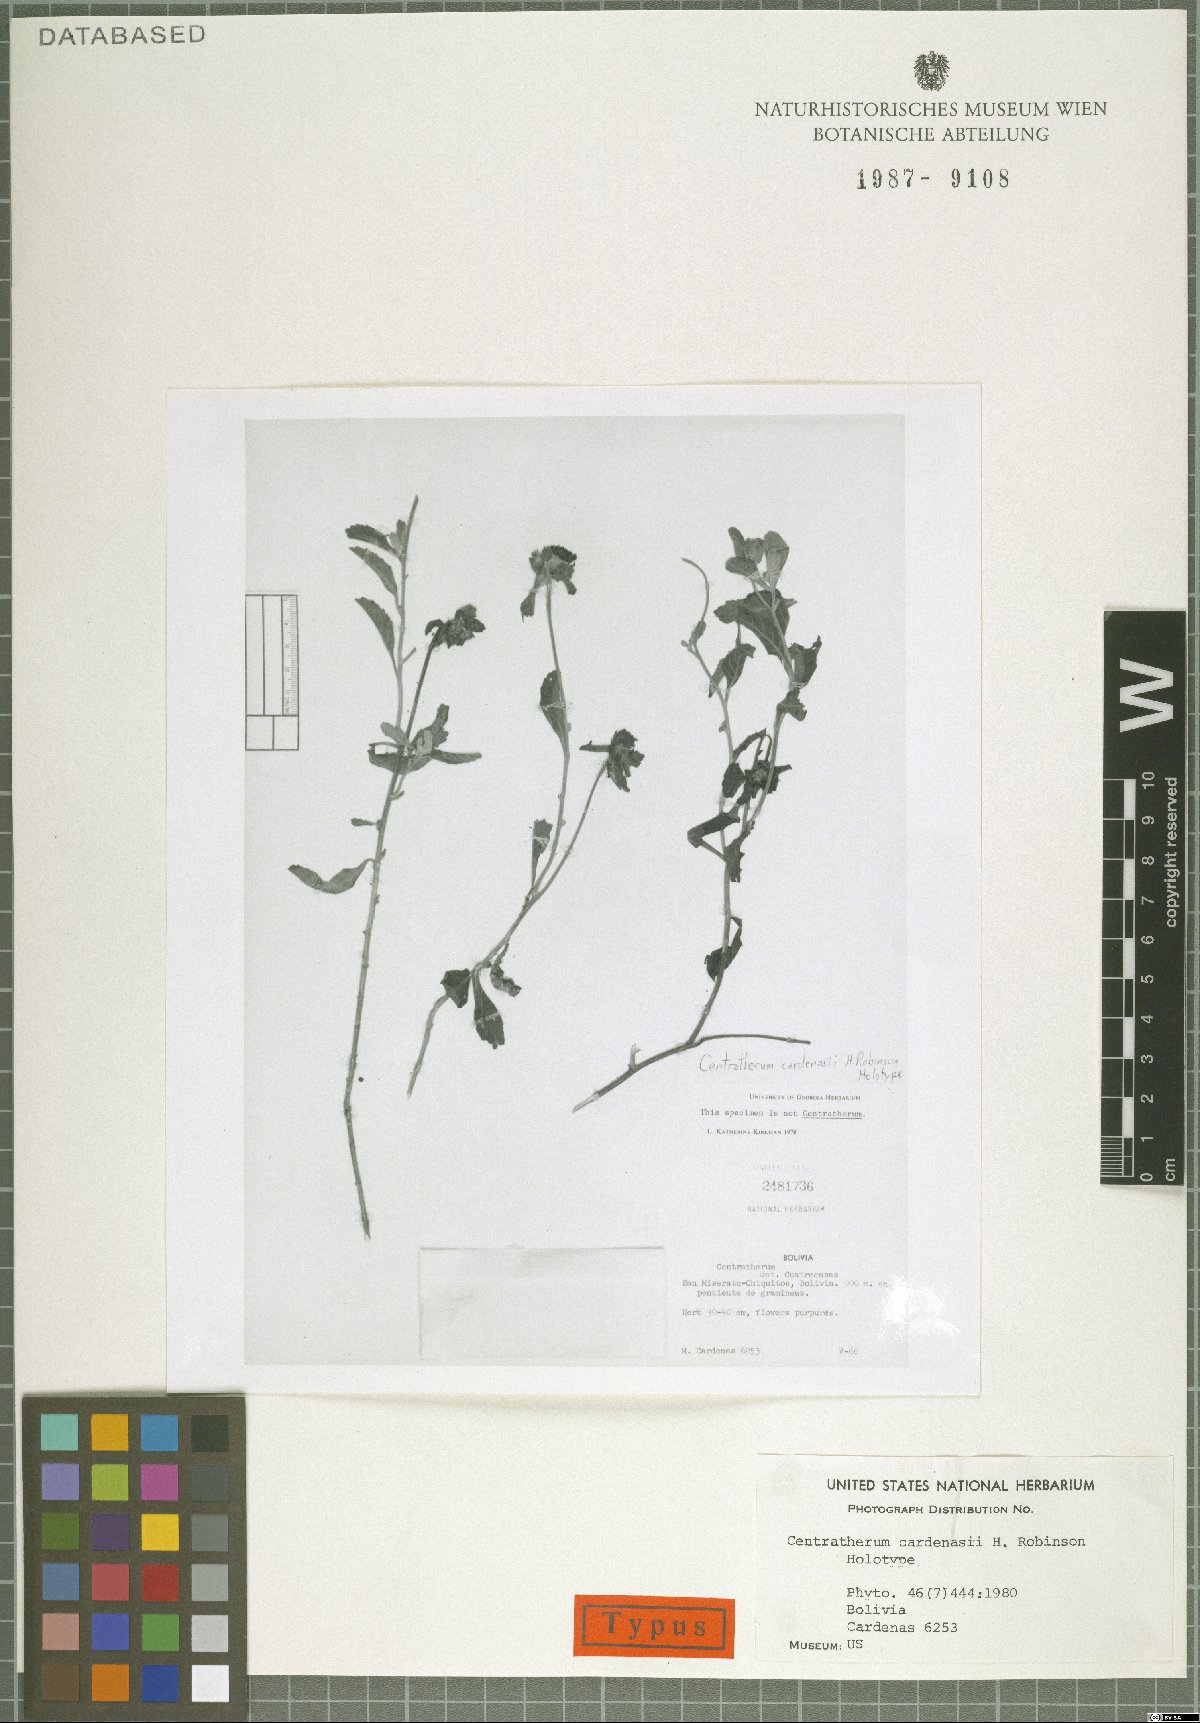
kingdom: Plantae
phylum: Tracheophyta
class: Magnoliopsida
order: Asterales
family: Asteraceae
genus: Centratherum
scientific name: Centratherum cardenasii
